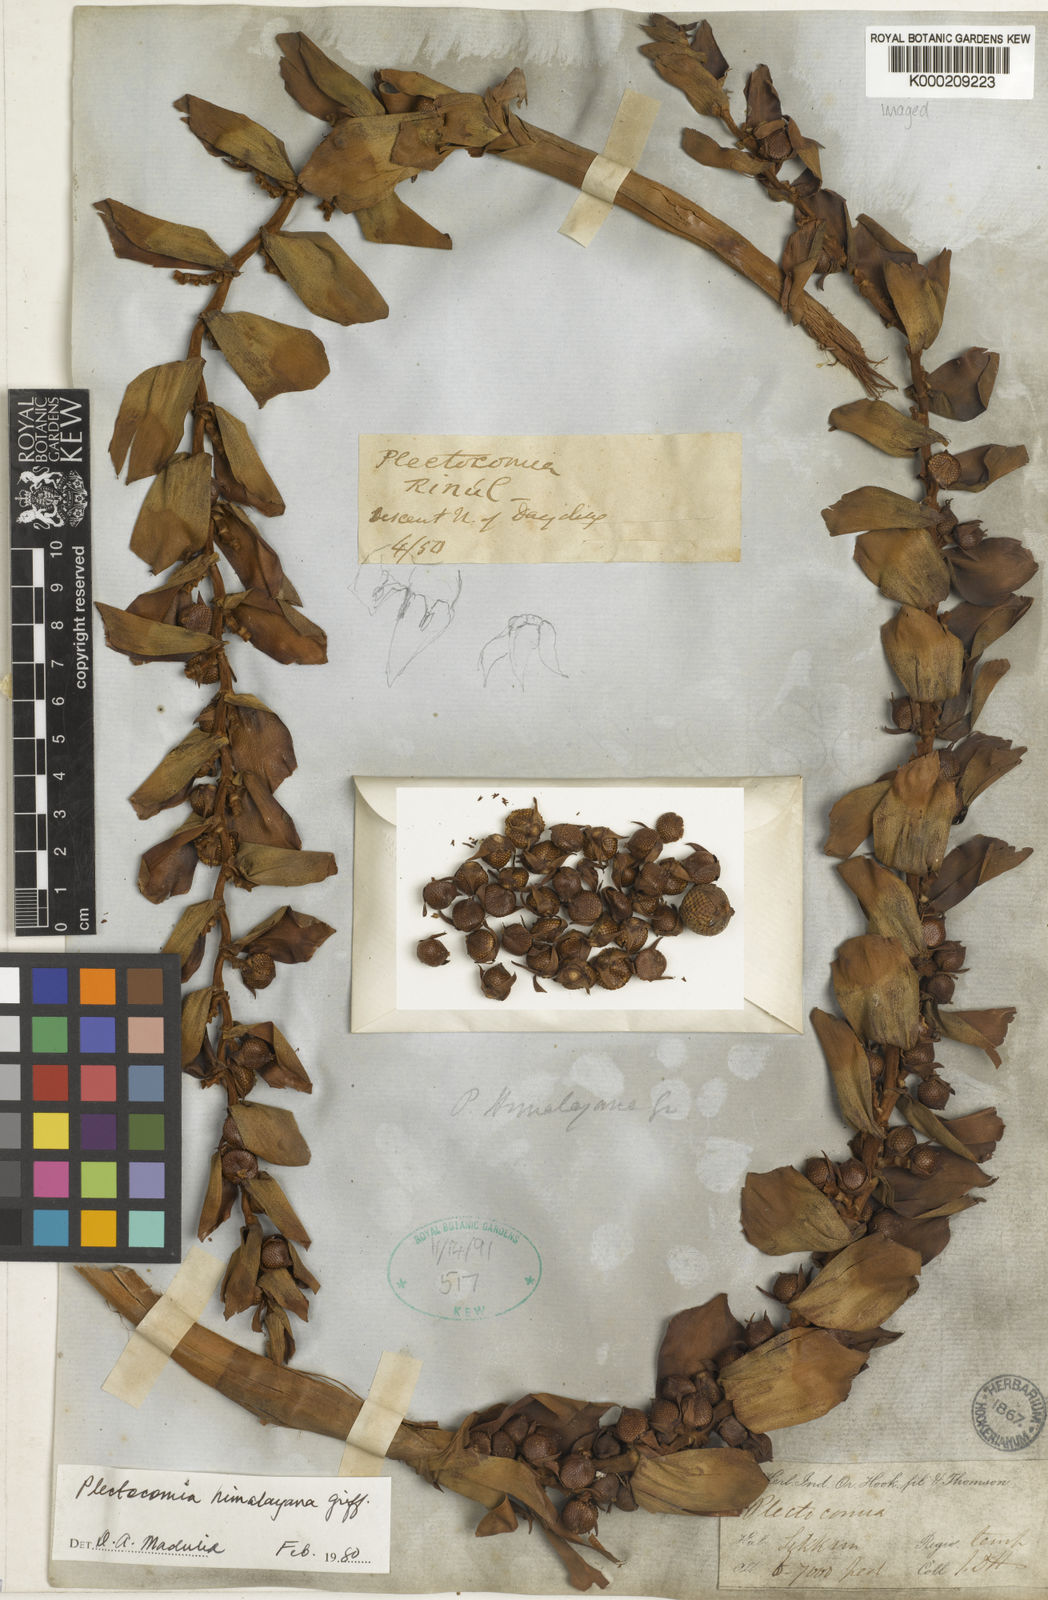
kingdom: Plantae
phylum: Tracheophyta
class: Liliopsida
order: Arecales
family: Arecaceae
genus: Plectocomia
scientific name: Plectocomia himalayana
